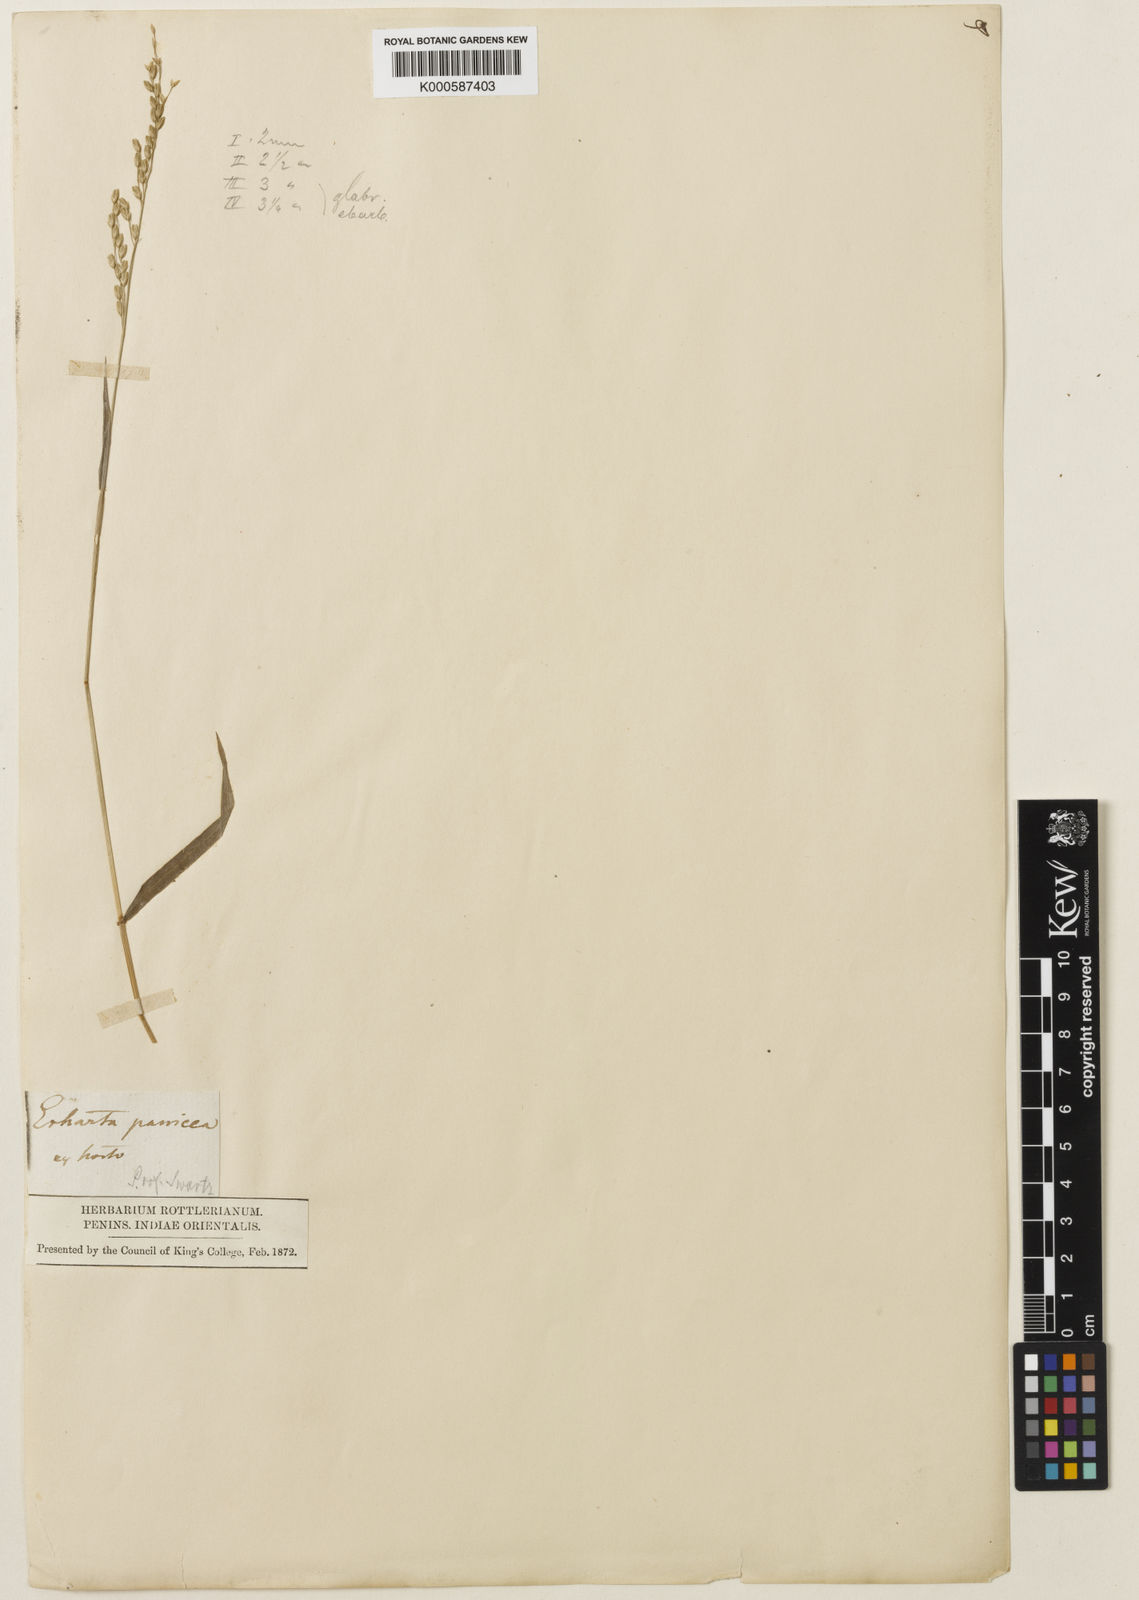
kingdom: Plantae
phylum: Tracheophyta
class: Liliopsida
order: Poales
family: Poaceae
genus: Ehrharta
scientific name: Ehrharta erecta
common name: Panic veldtgrass
